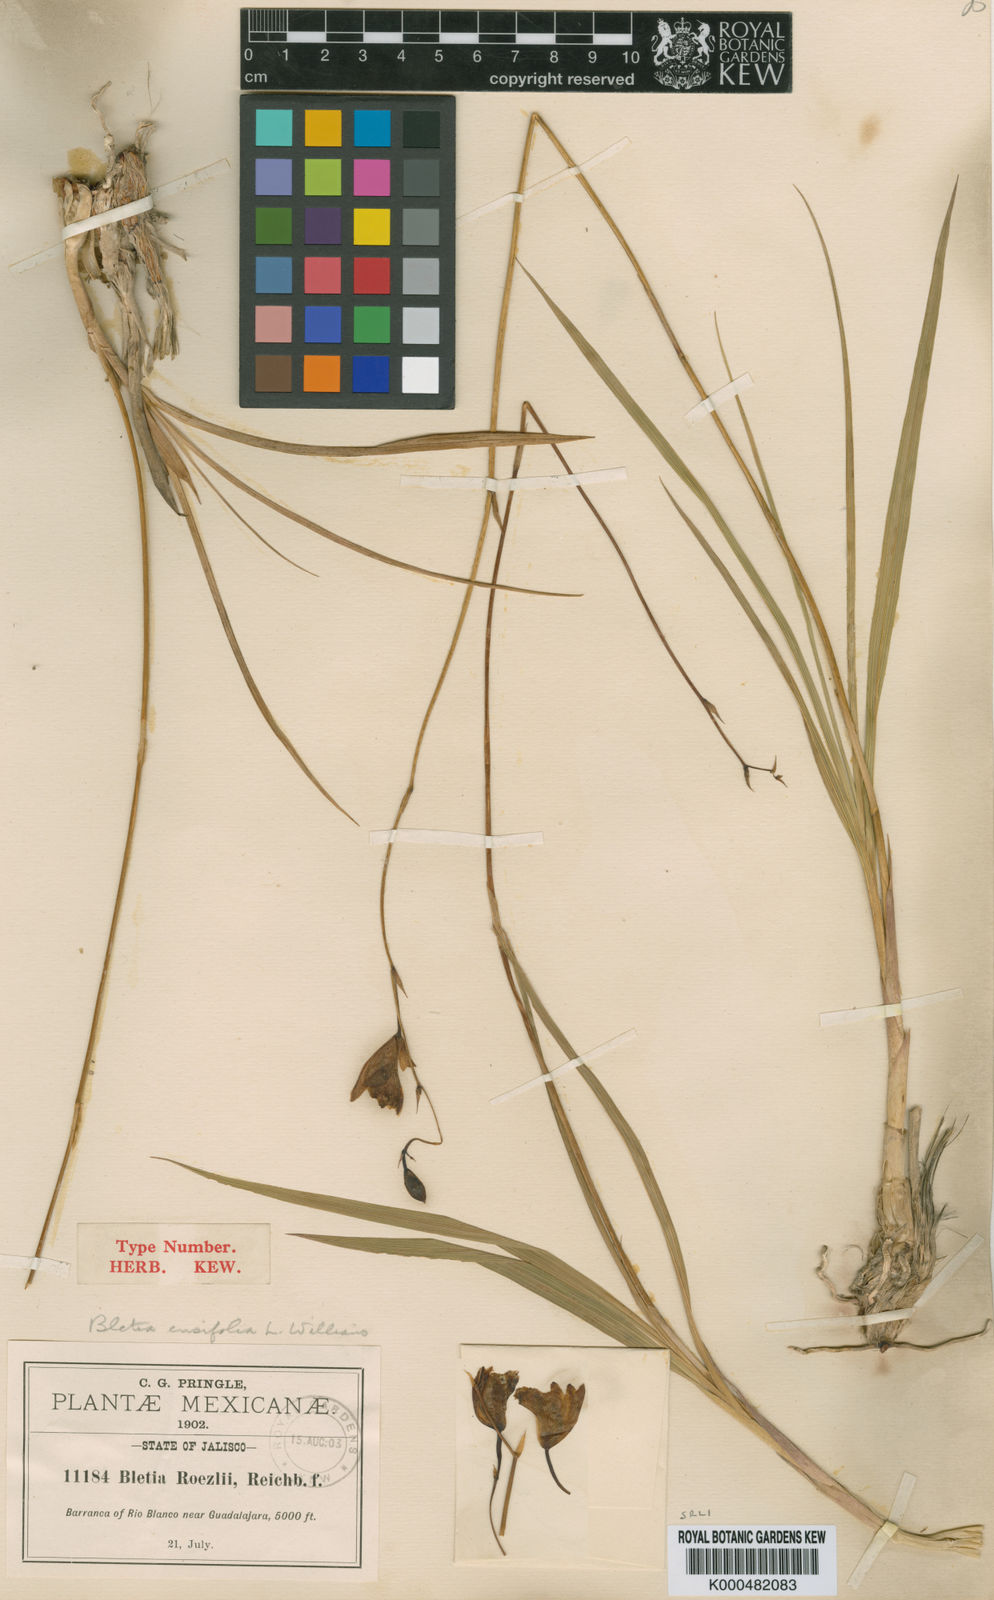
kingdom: Plantae
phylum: Tracheophyta
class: Liliopsida
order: Asparagales
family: Orchidaceae
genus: Bletia
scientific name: Bletia ensifolia
